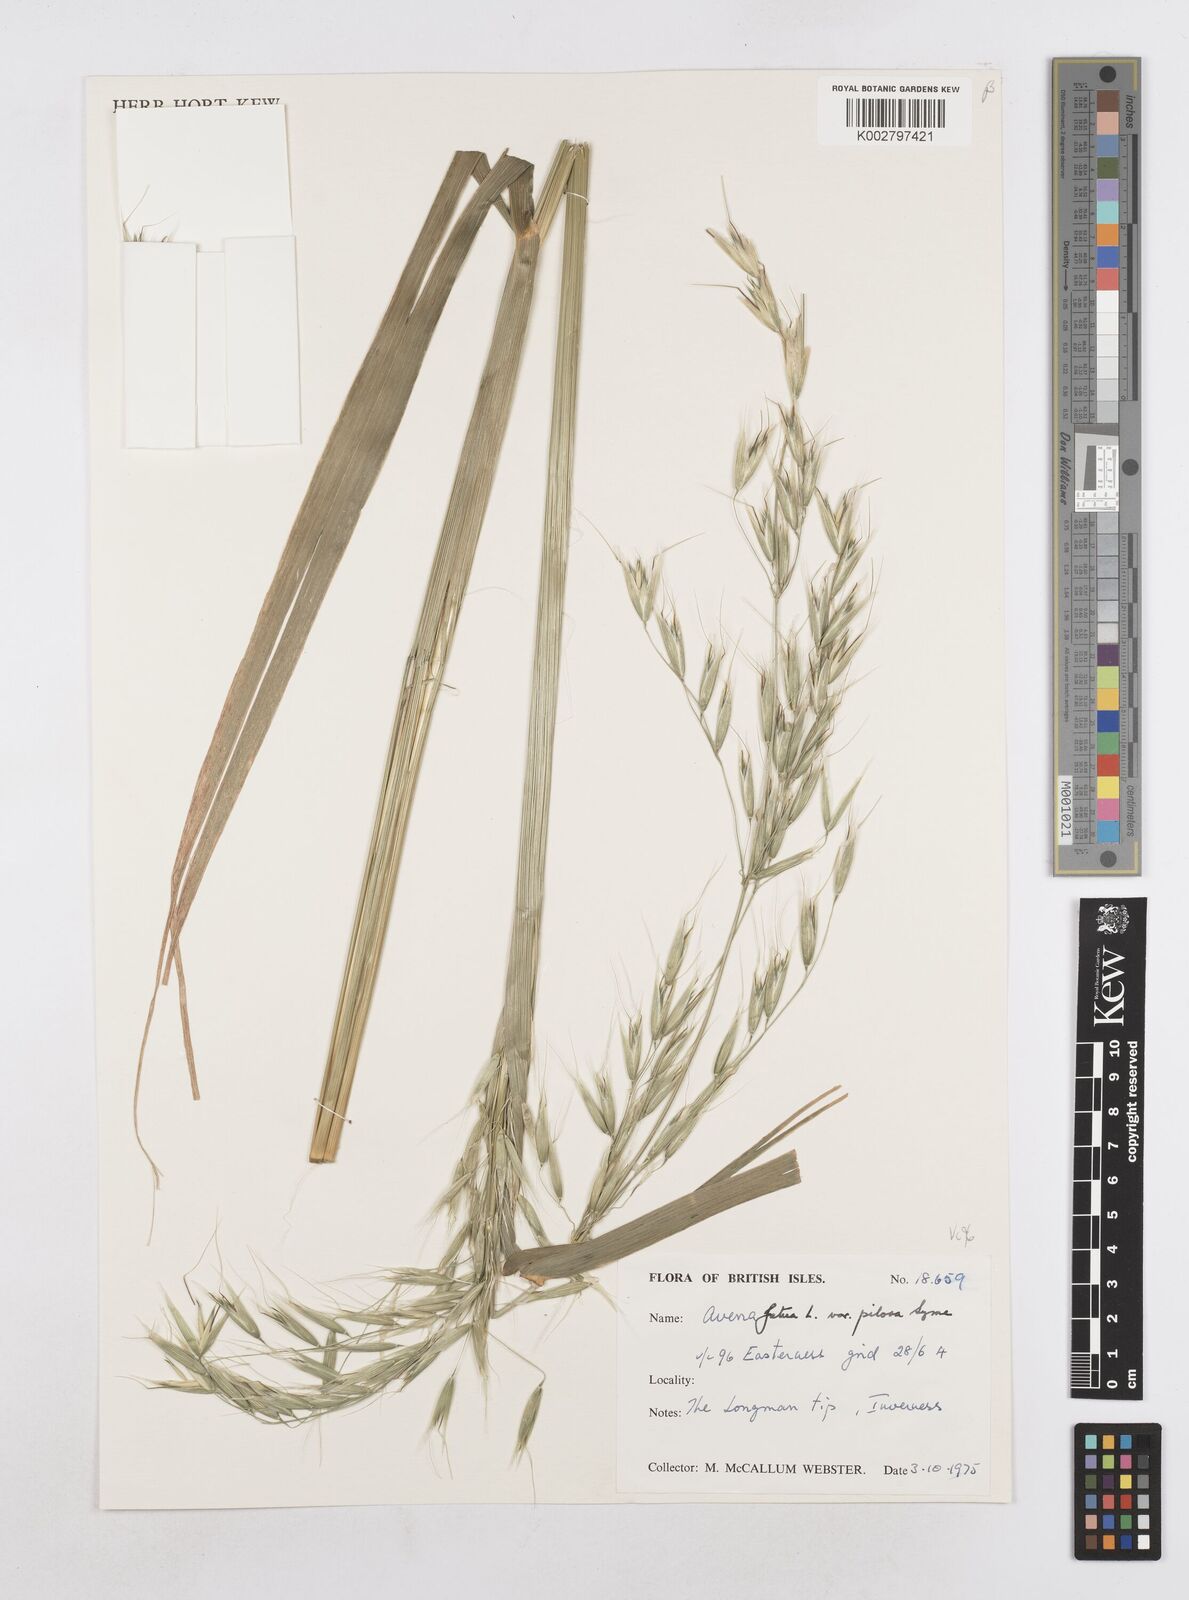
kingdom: Plantae
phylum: Tracheophyta
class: Liliopsida
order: Poales
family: Poaceae
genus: Avena
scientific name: Avena fatua
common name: Wild oat
